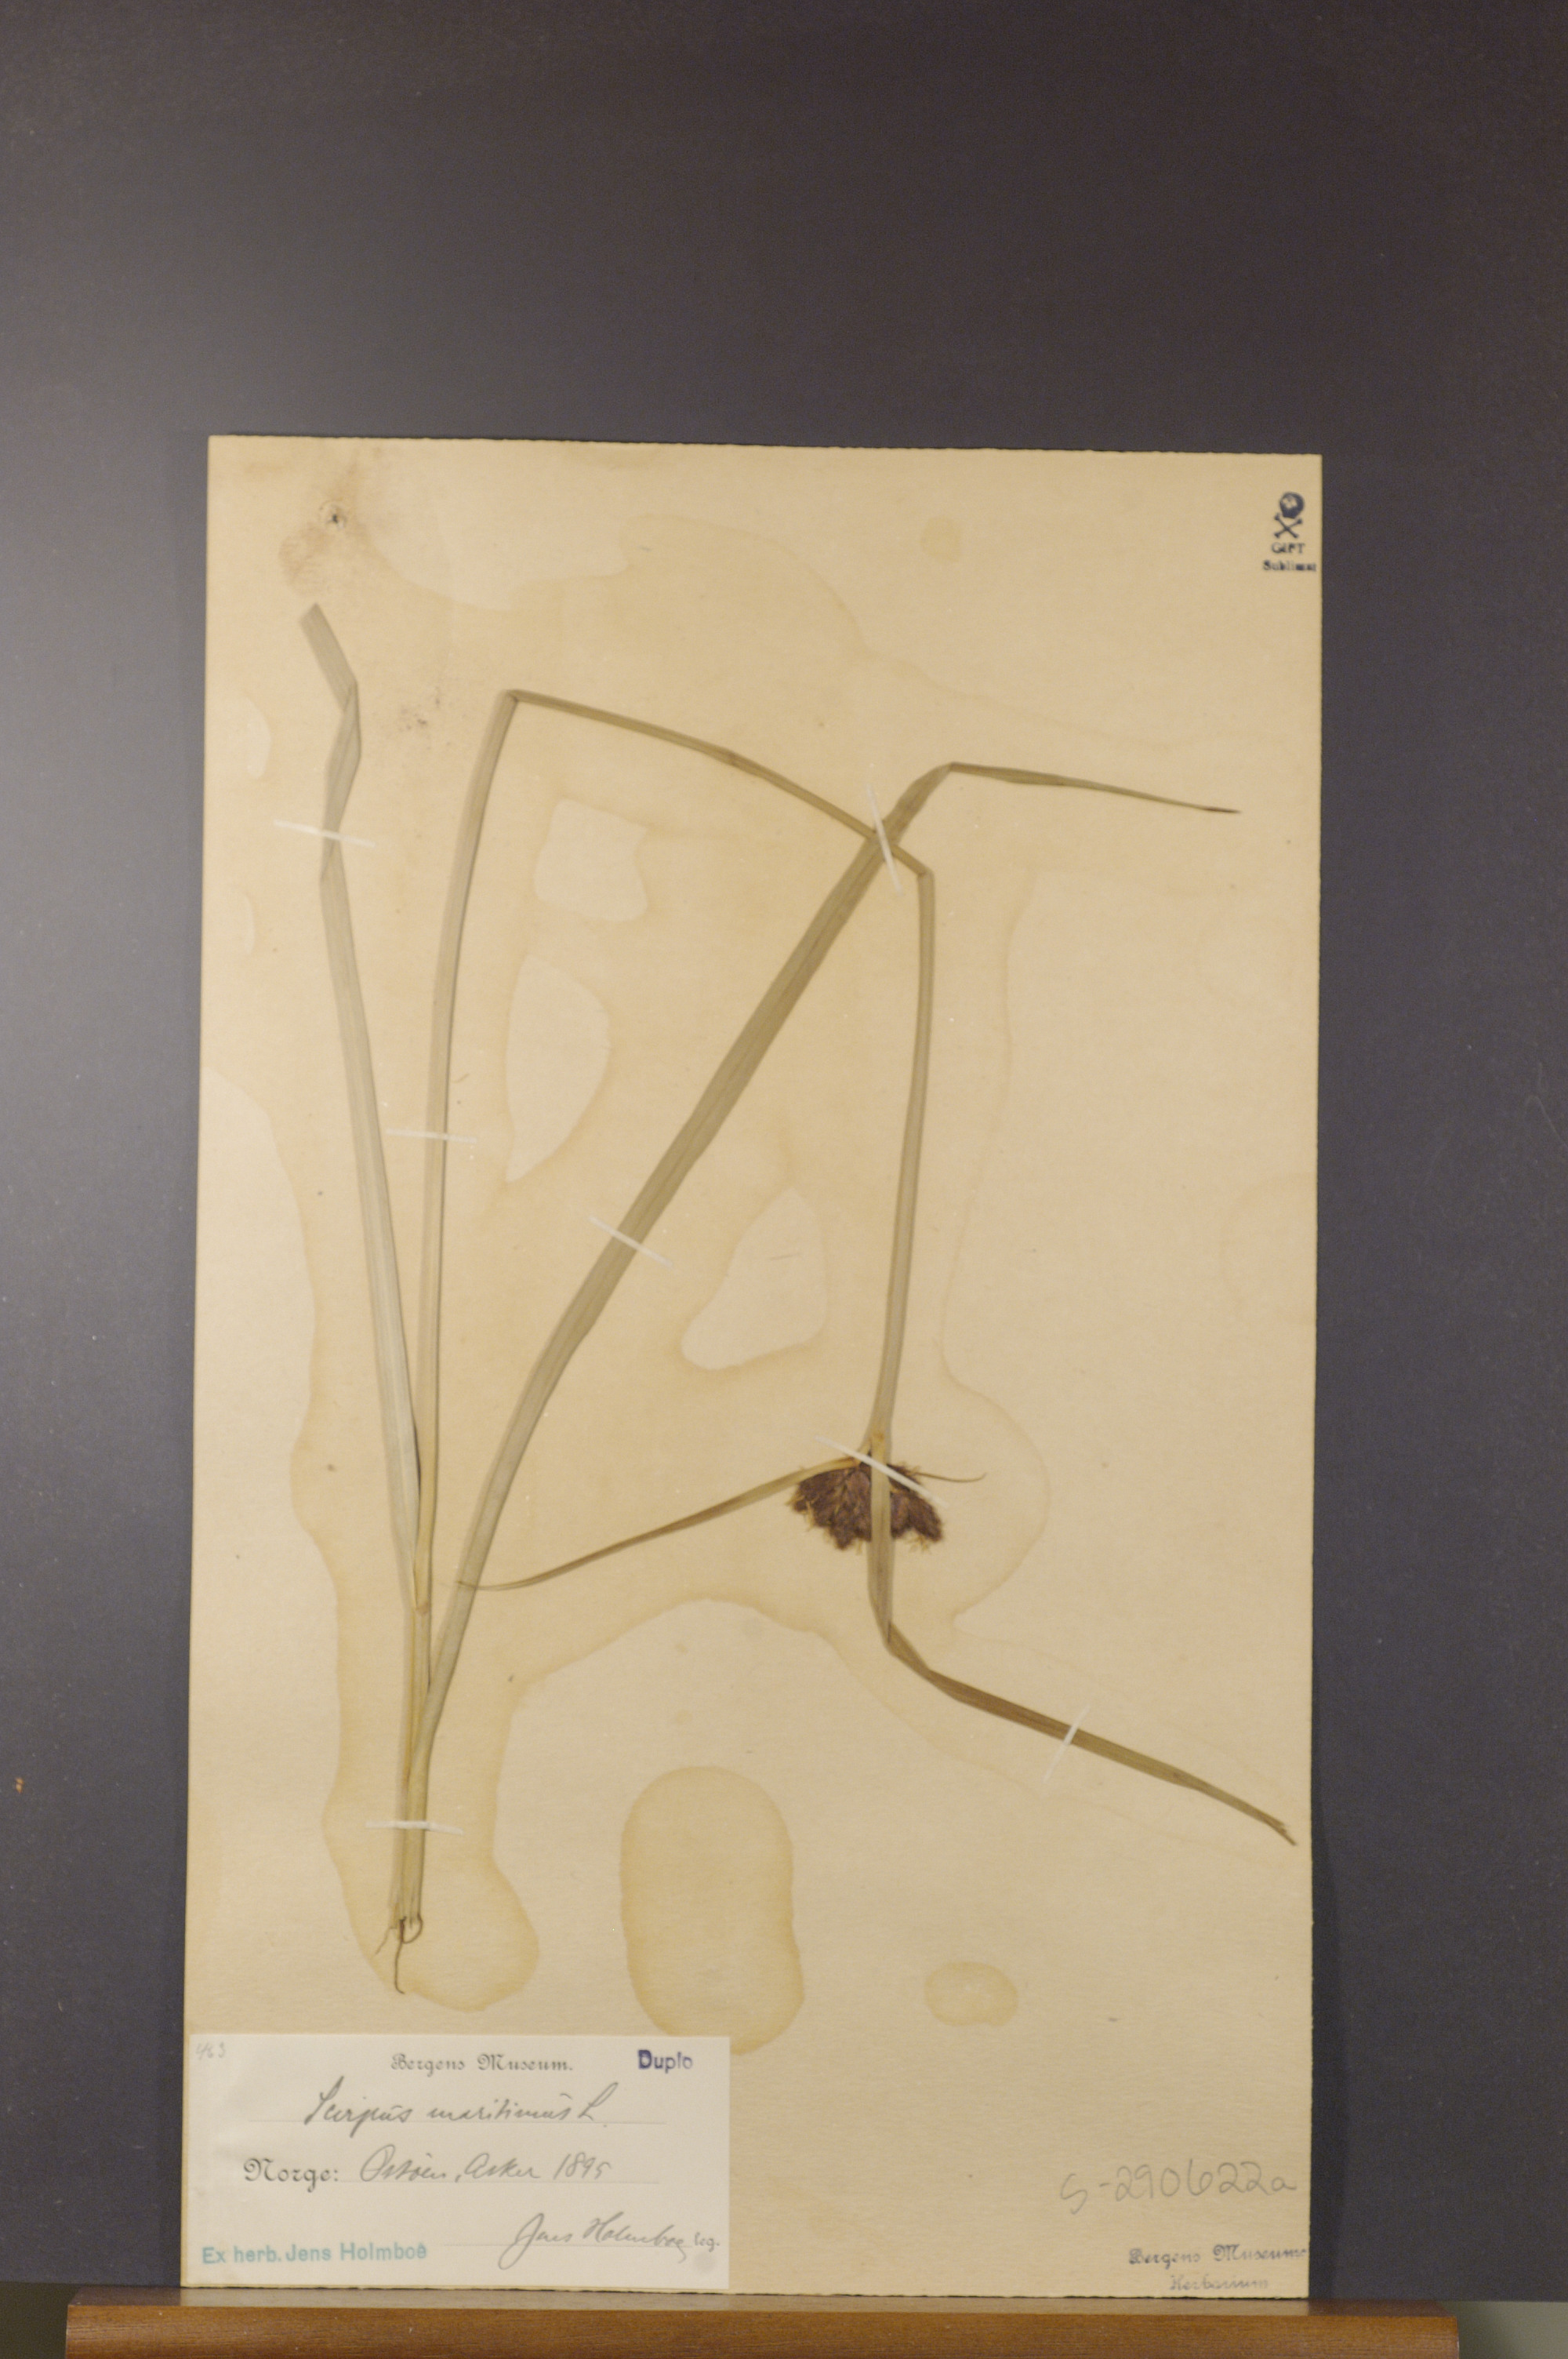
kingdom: Plantae
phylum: Tracheophyta
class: Liliopsida
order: Poales
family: Cyperaceae
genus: Bolboschoenus
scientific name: Bolboschoenus maritimus
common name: Sea club-rush
